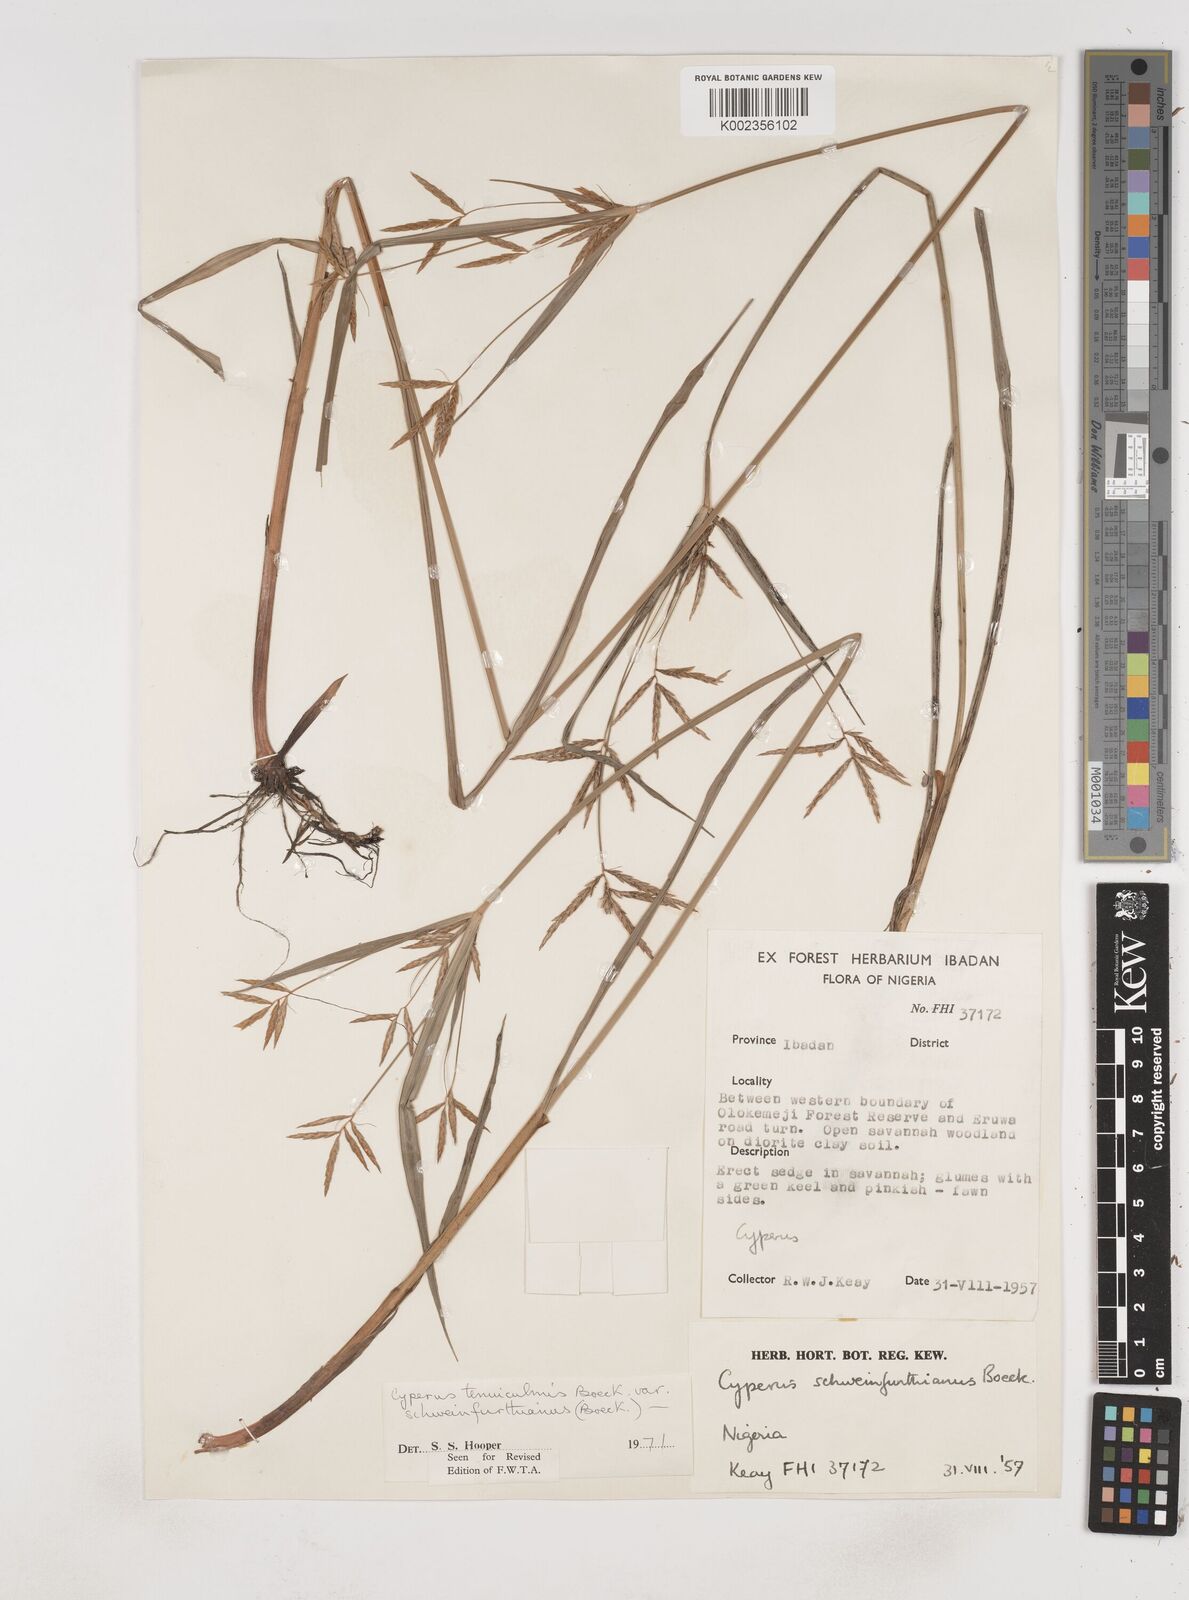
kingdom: Plantae
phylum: Tracheophyta
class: Liliopsida
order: Poales
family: Cyperaceae
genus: Cyperus
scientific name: Cyperus tenuiculmis
